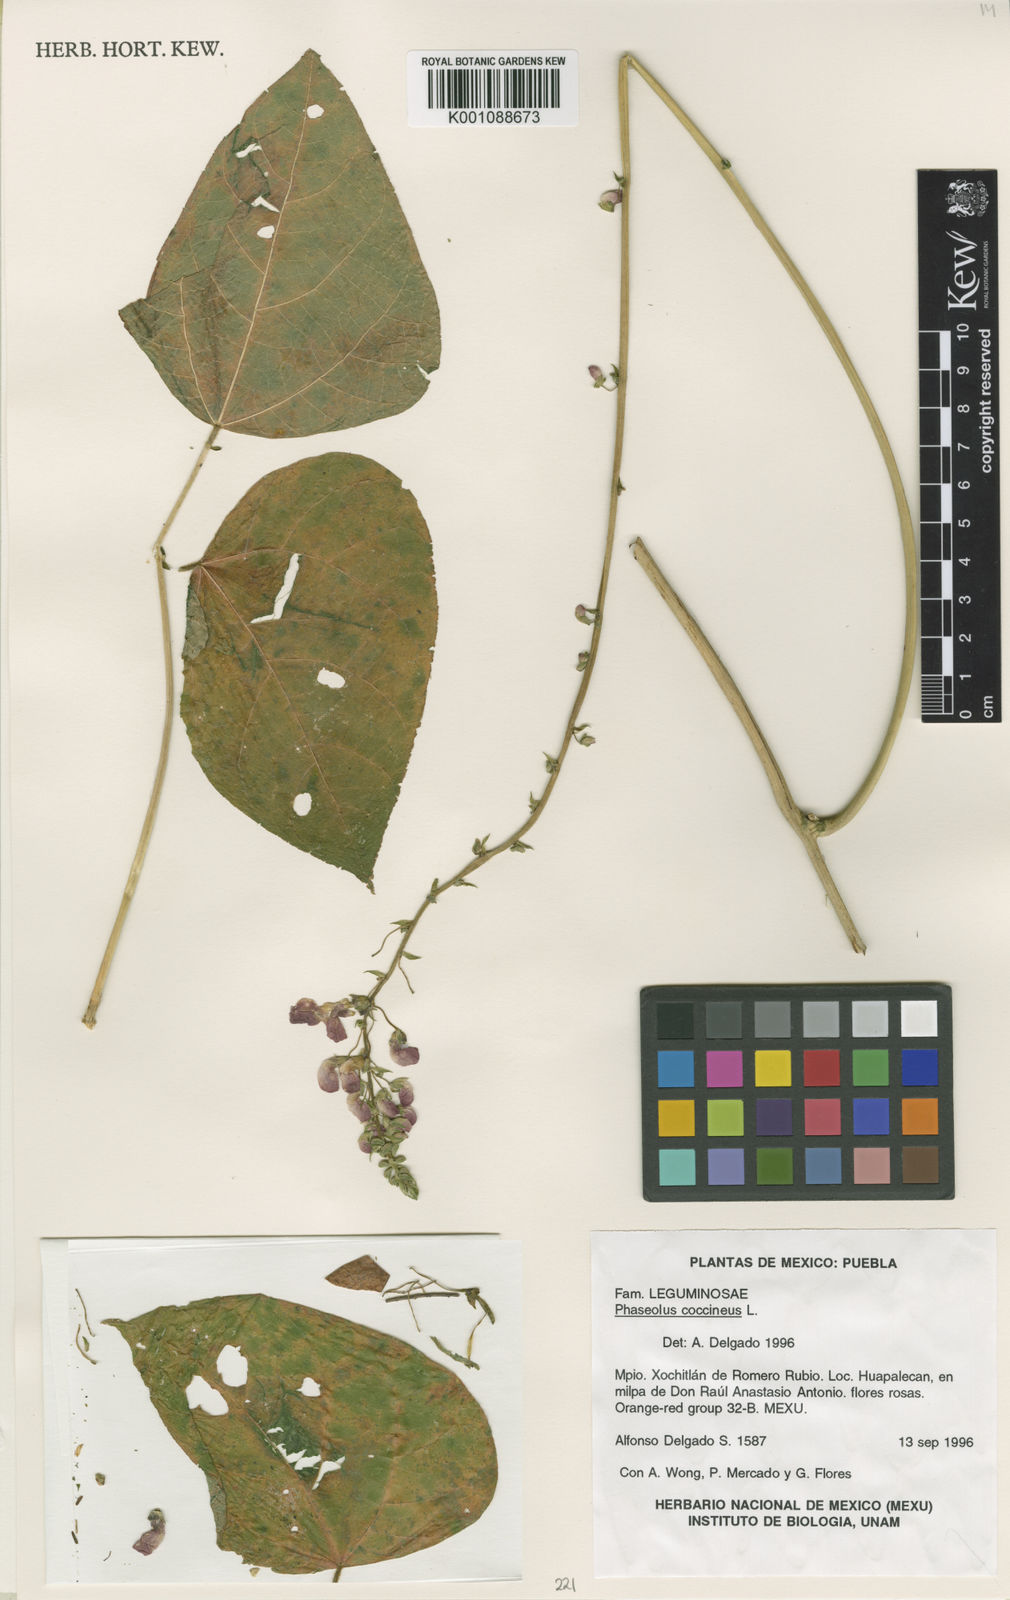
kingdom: Plantae
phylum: Tracheophyta
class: Magnoliopsida
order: Fabales
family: Fabaceae
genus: Phaseolus
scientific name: Phaseolus coccineus
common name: Runner bean
